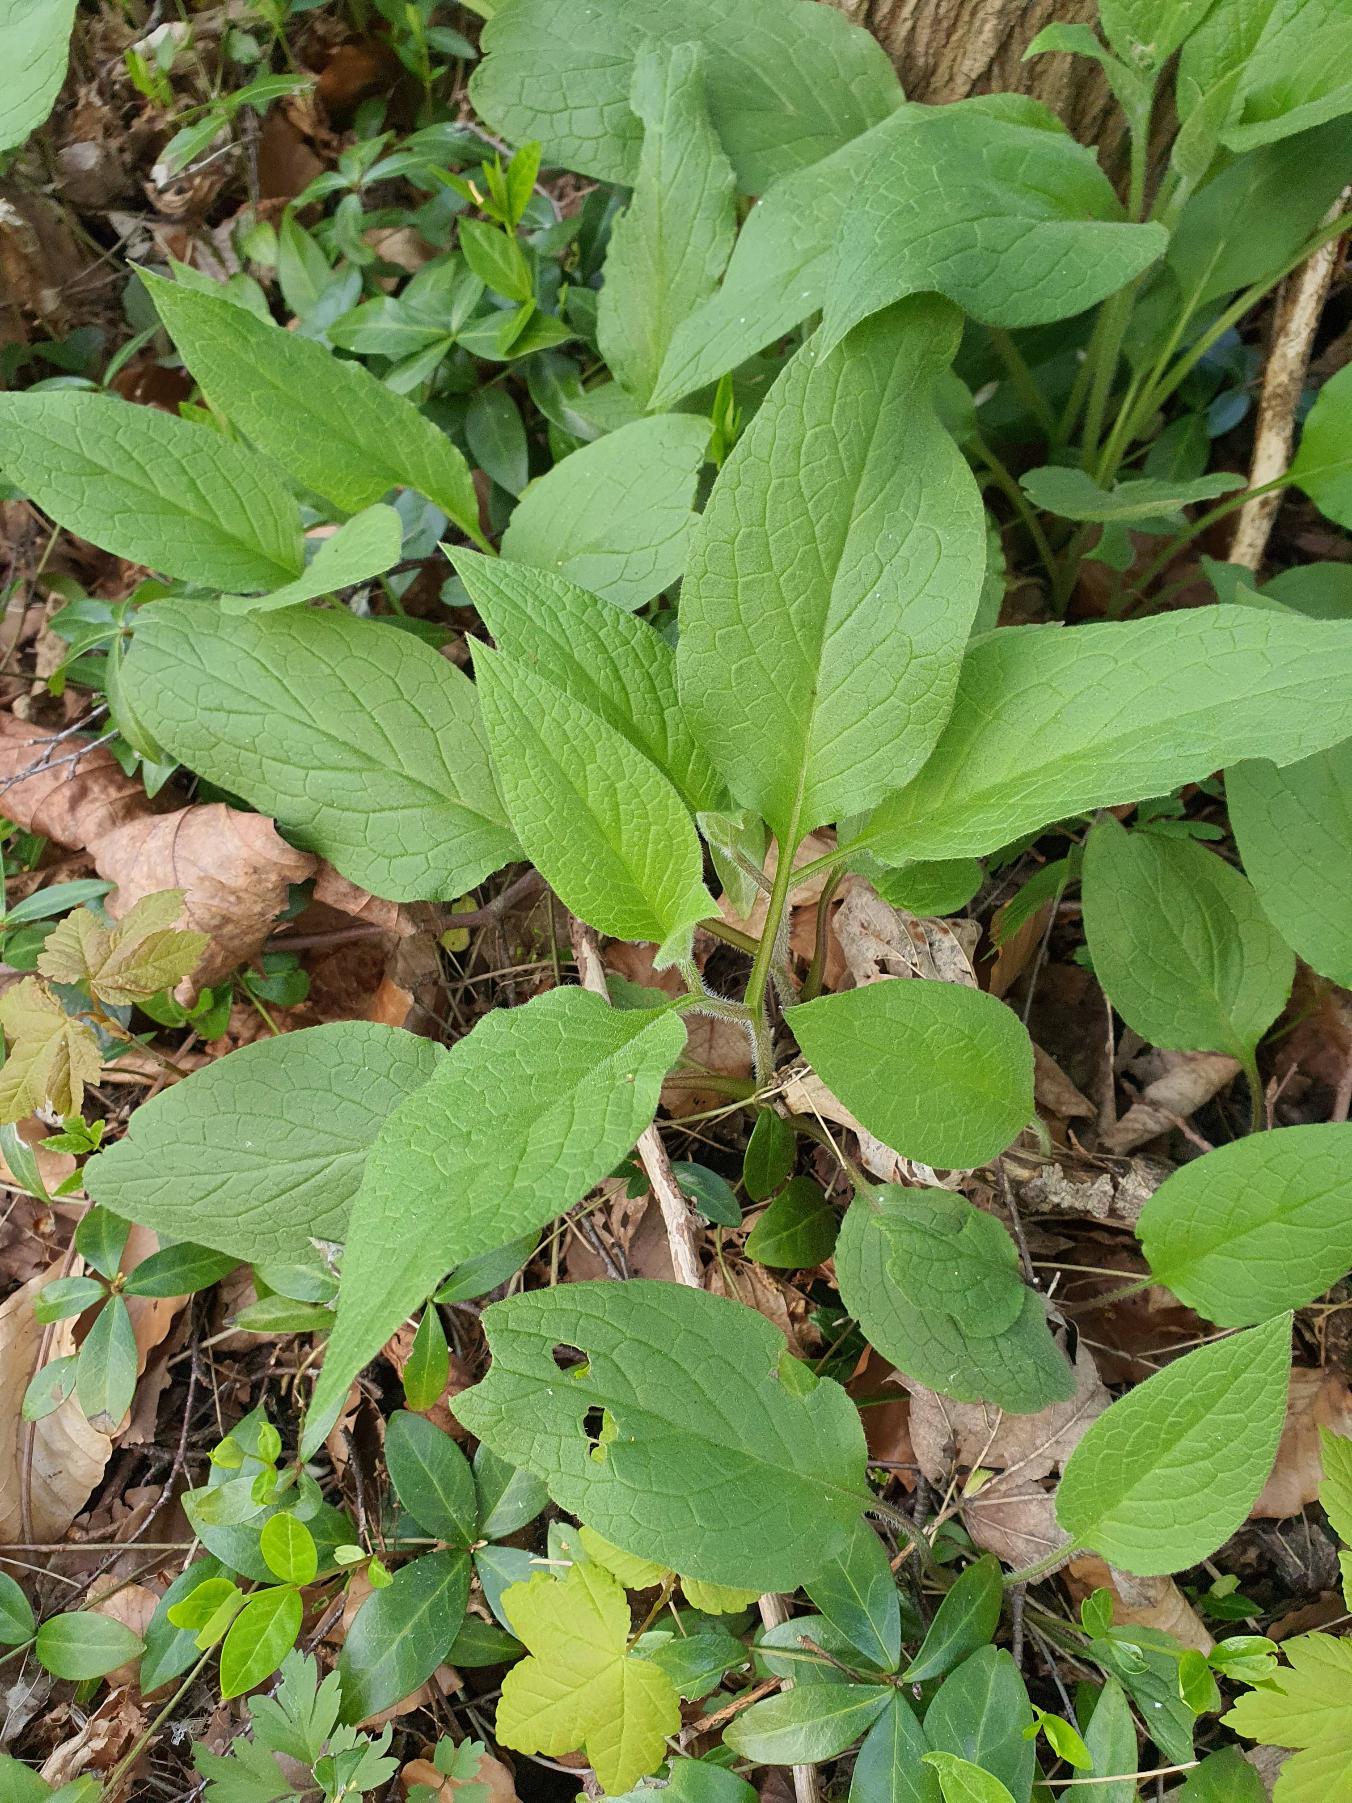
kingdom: Plantae
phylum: Tracheophyta
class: Magnoliopsida
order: Boraginales
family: Boraginaceae
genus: Symphytum
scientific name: Symphytum bulbosum
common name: Bleggul kulsukker
